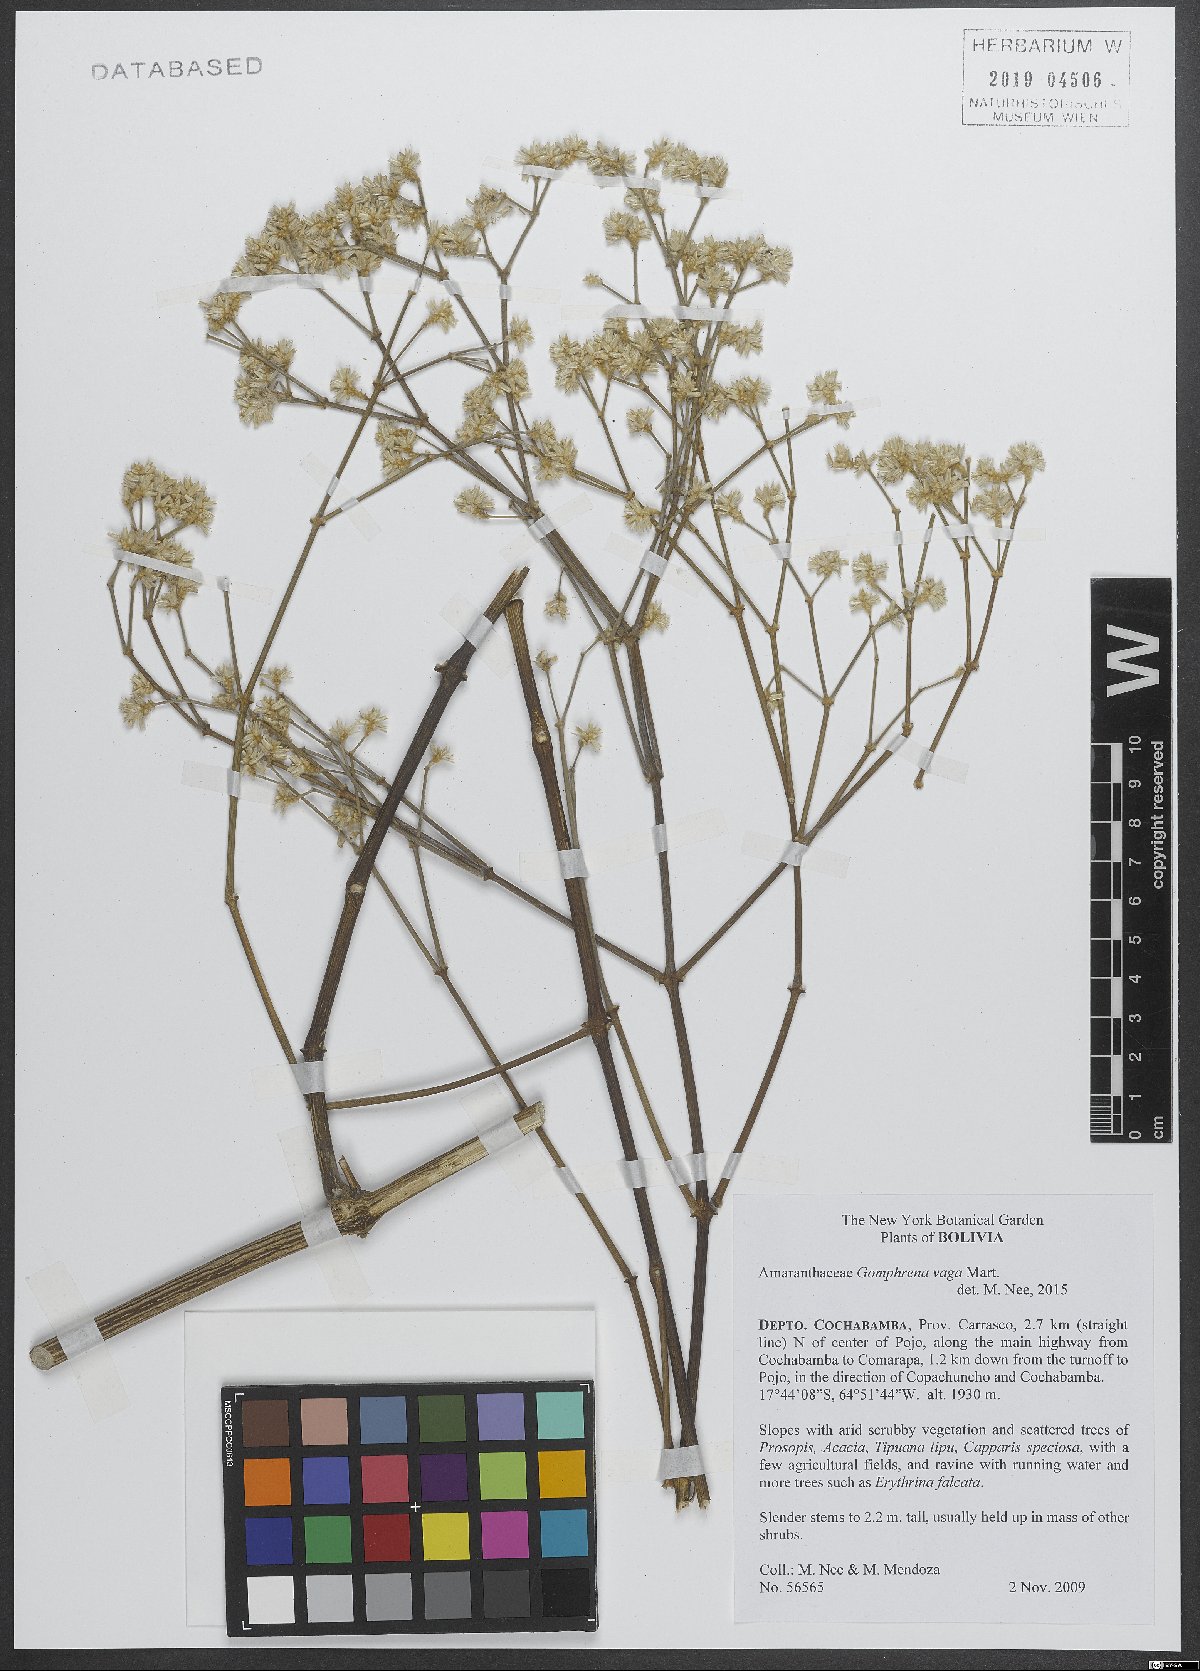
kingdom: Plantae
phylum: Tracheophyta
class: Magnoliopsida
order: Caryophyllales
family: Amaranthaceae
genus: Gomphrena
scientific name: Gomphrena vaga
